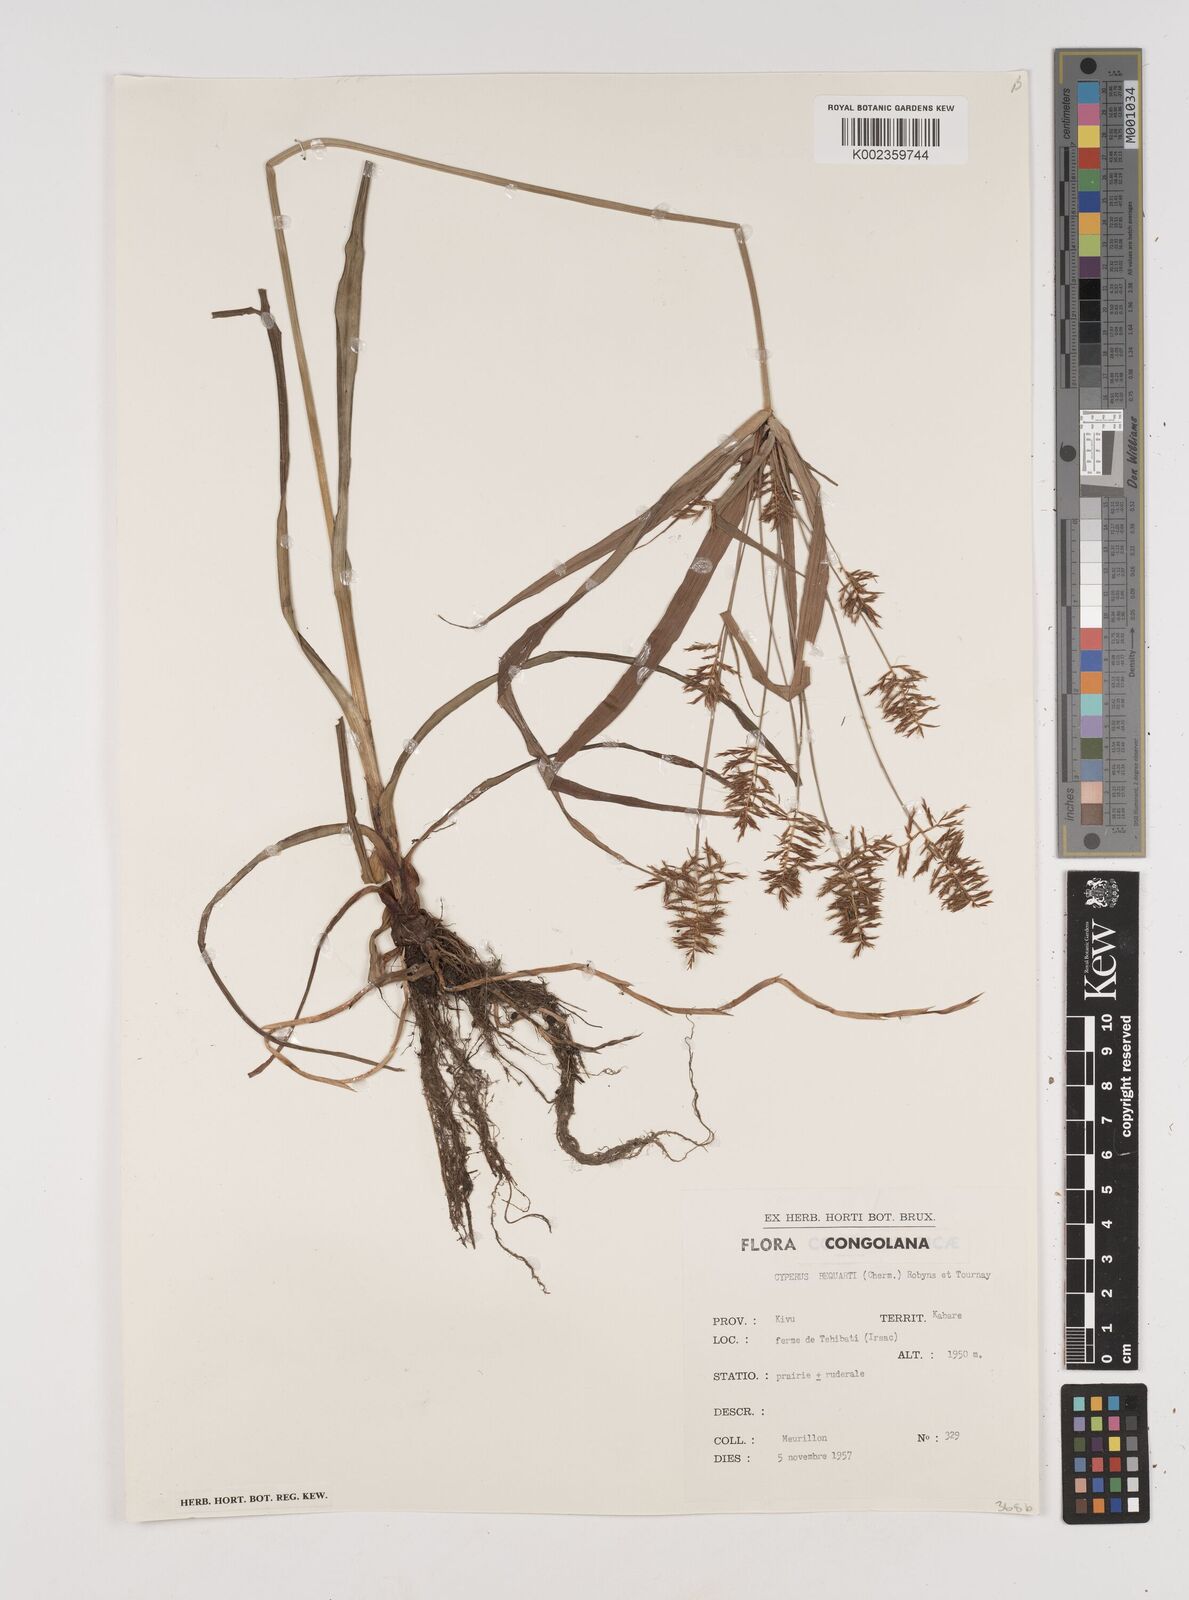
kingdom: Plantae
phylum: Tracheophyta
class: Liliopsida
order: Poales
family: Cyperaceae
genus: Cyperus
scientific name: Cyperus ferrugineoviridis
